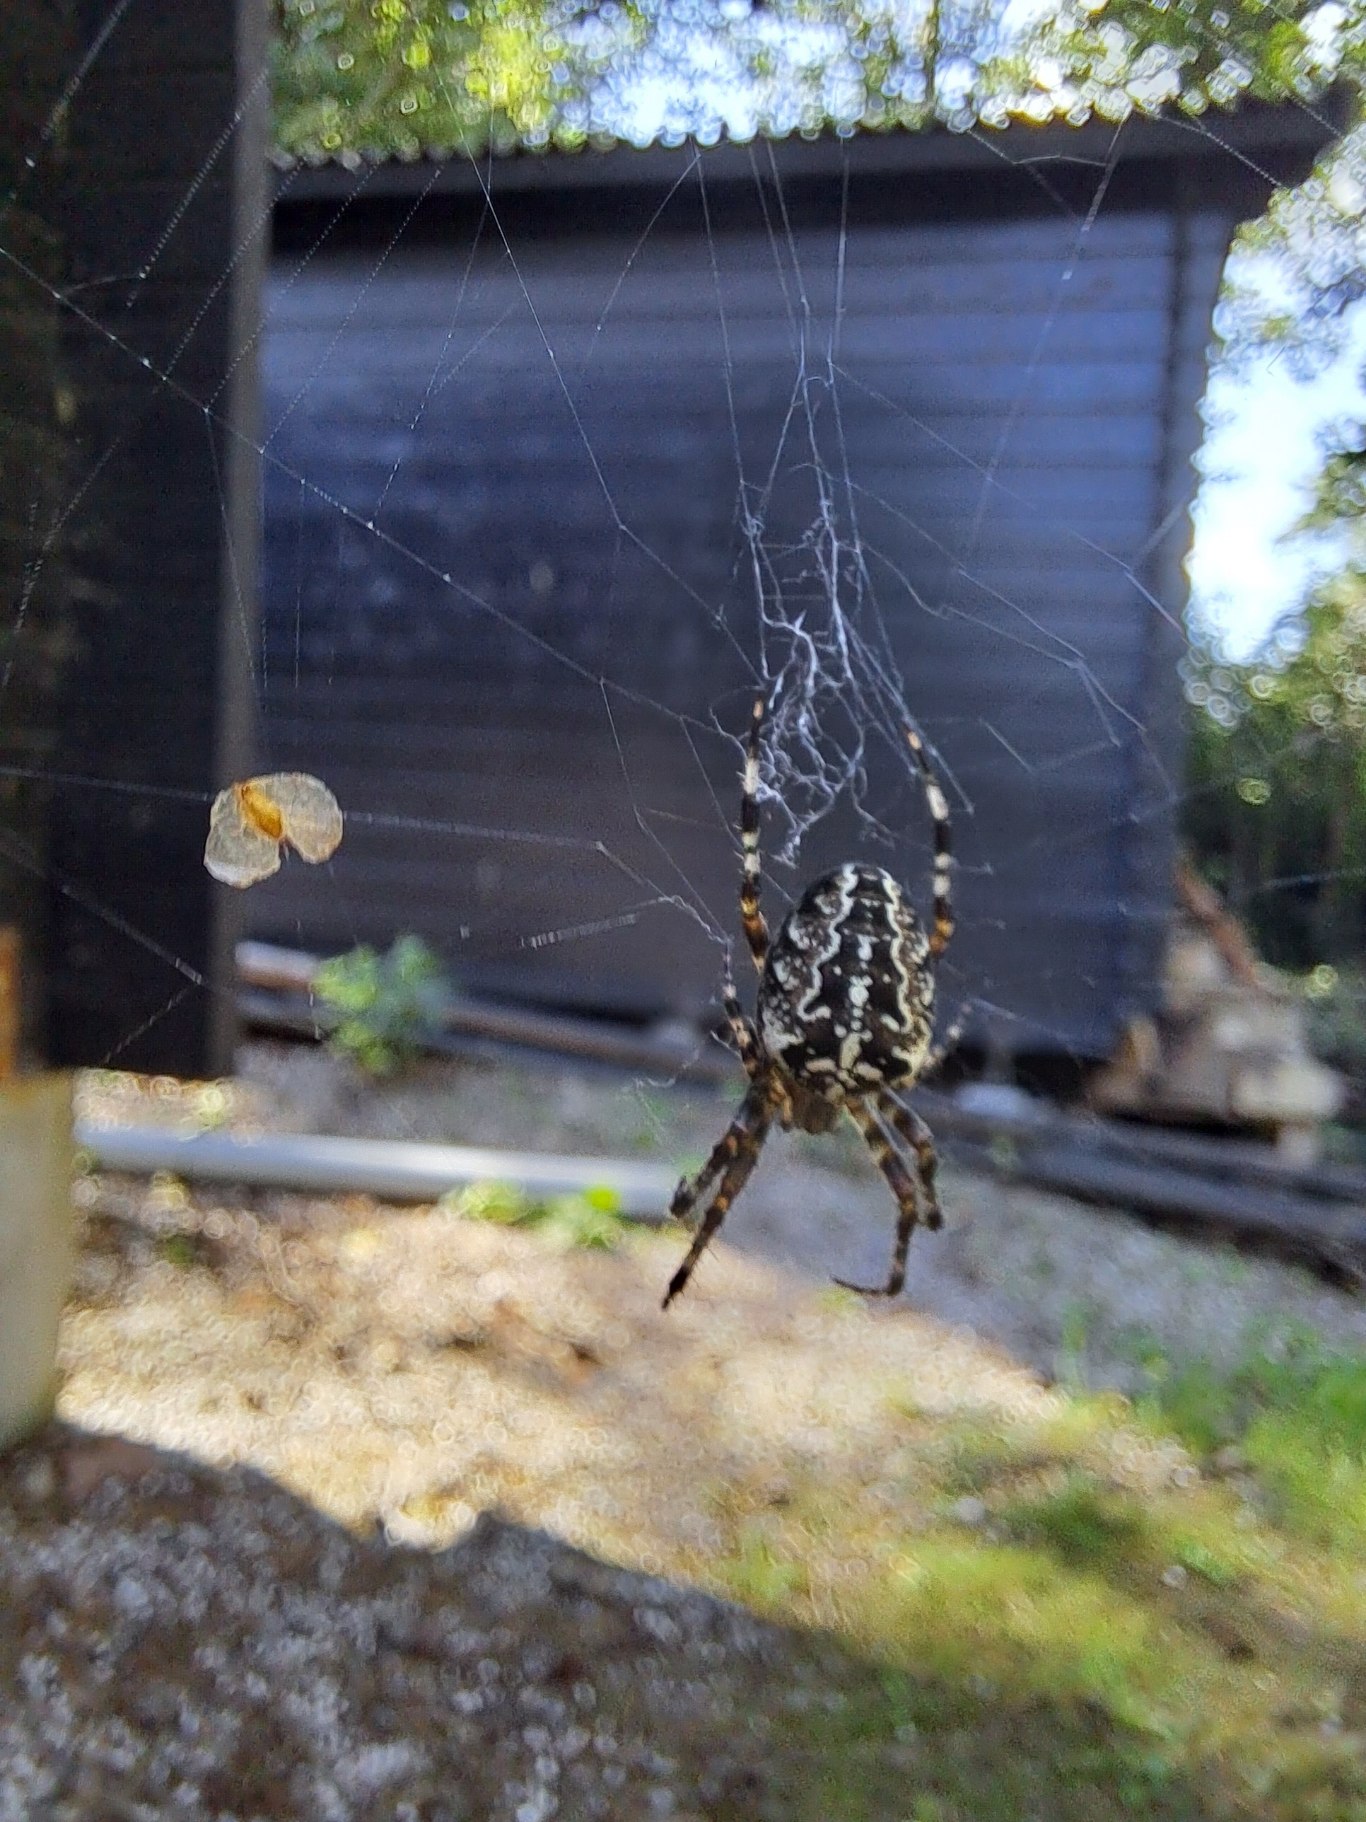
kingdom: Animalia
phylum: Arthropoda
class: Arachnida
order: Araneae
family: Araneidae
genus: Araneus
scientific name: Araneus diadematus
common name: Korsedderkop
